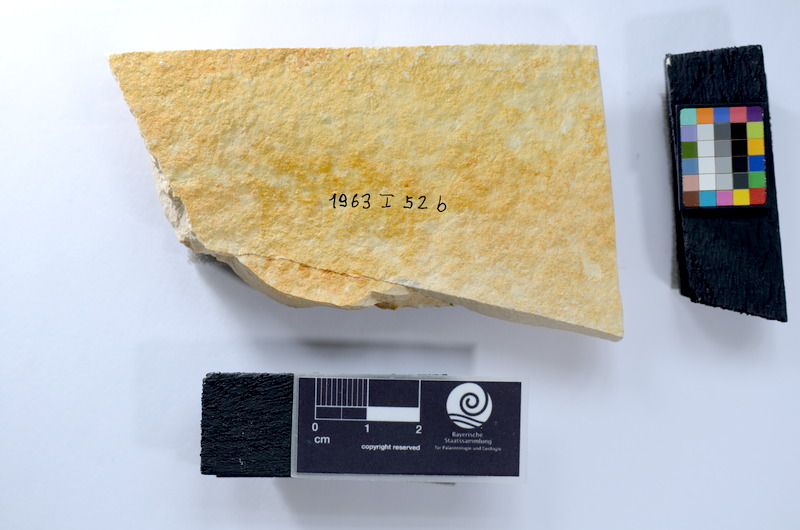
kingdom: Animalia
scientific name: Animalia
